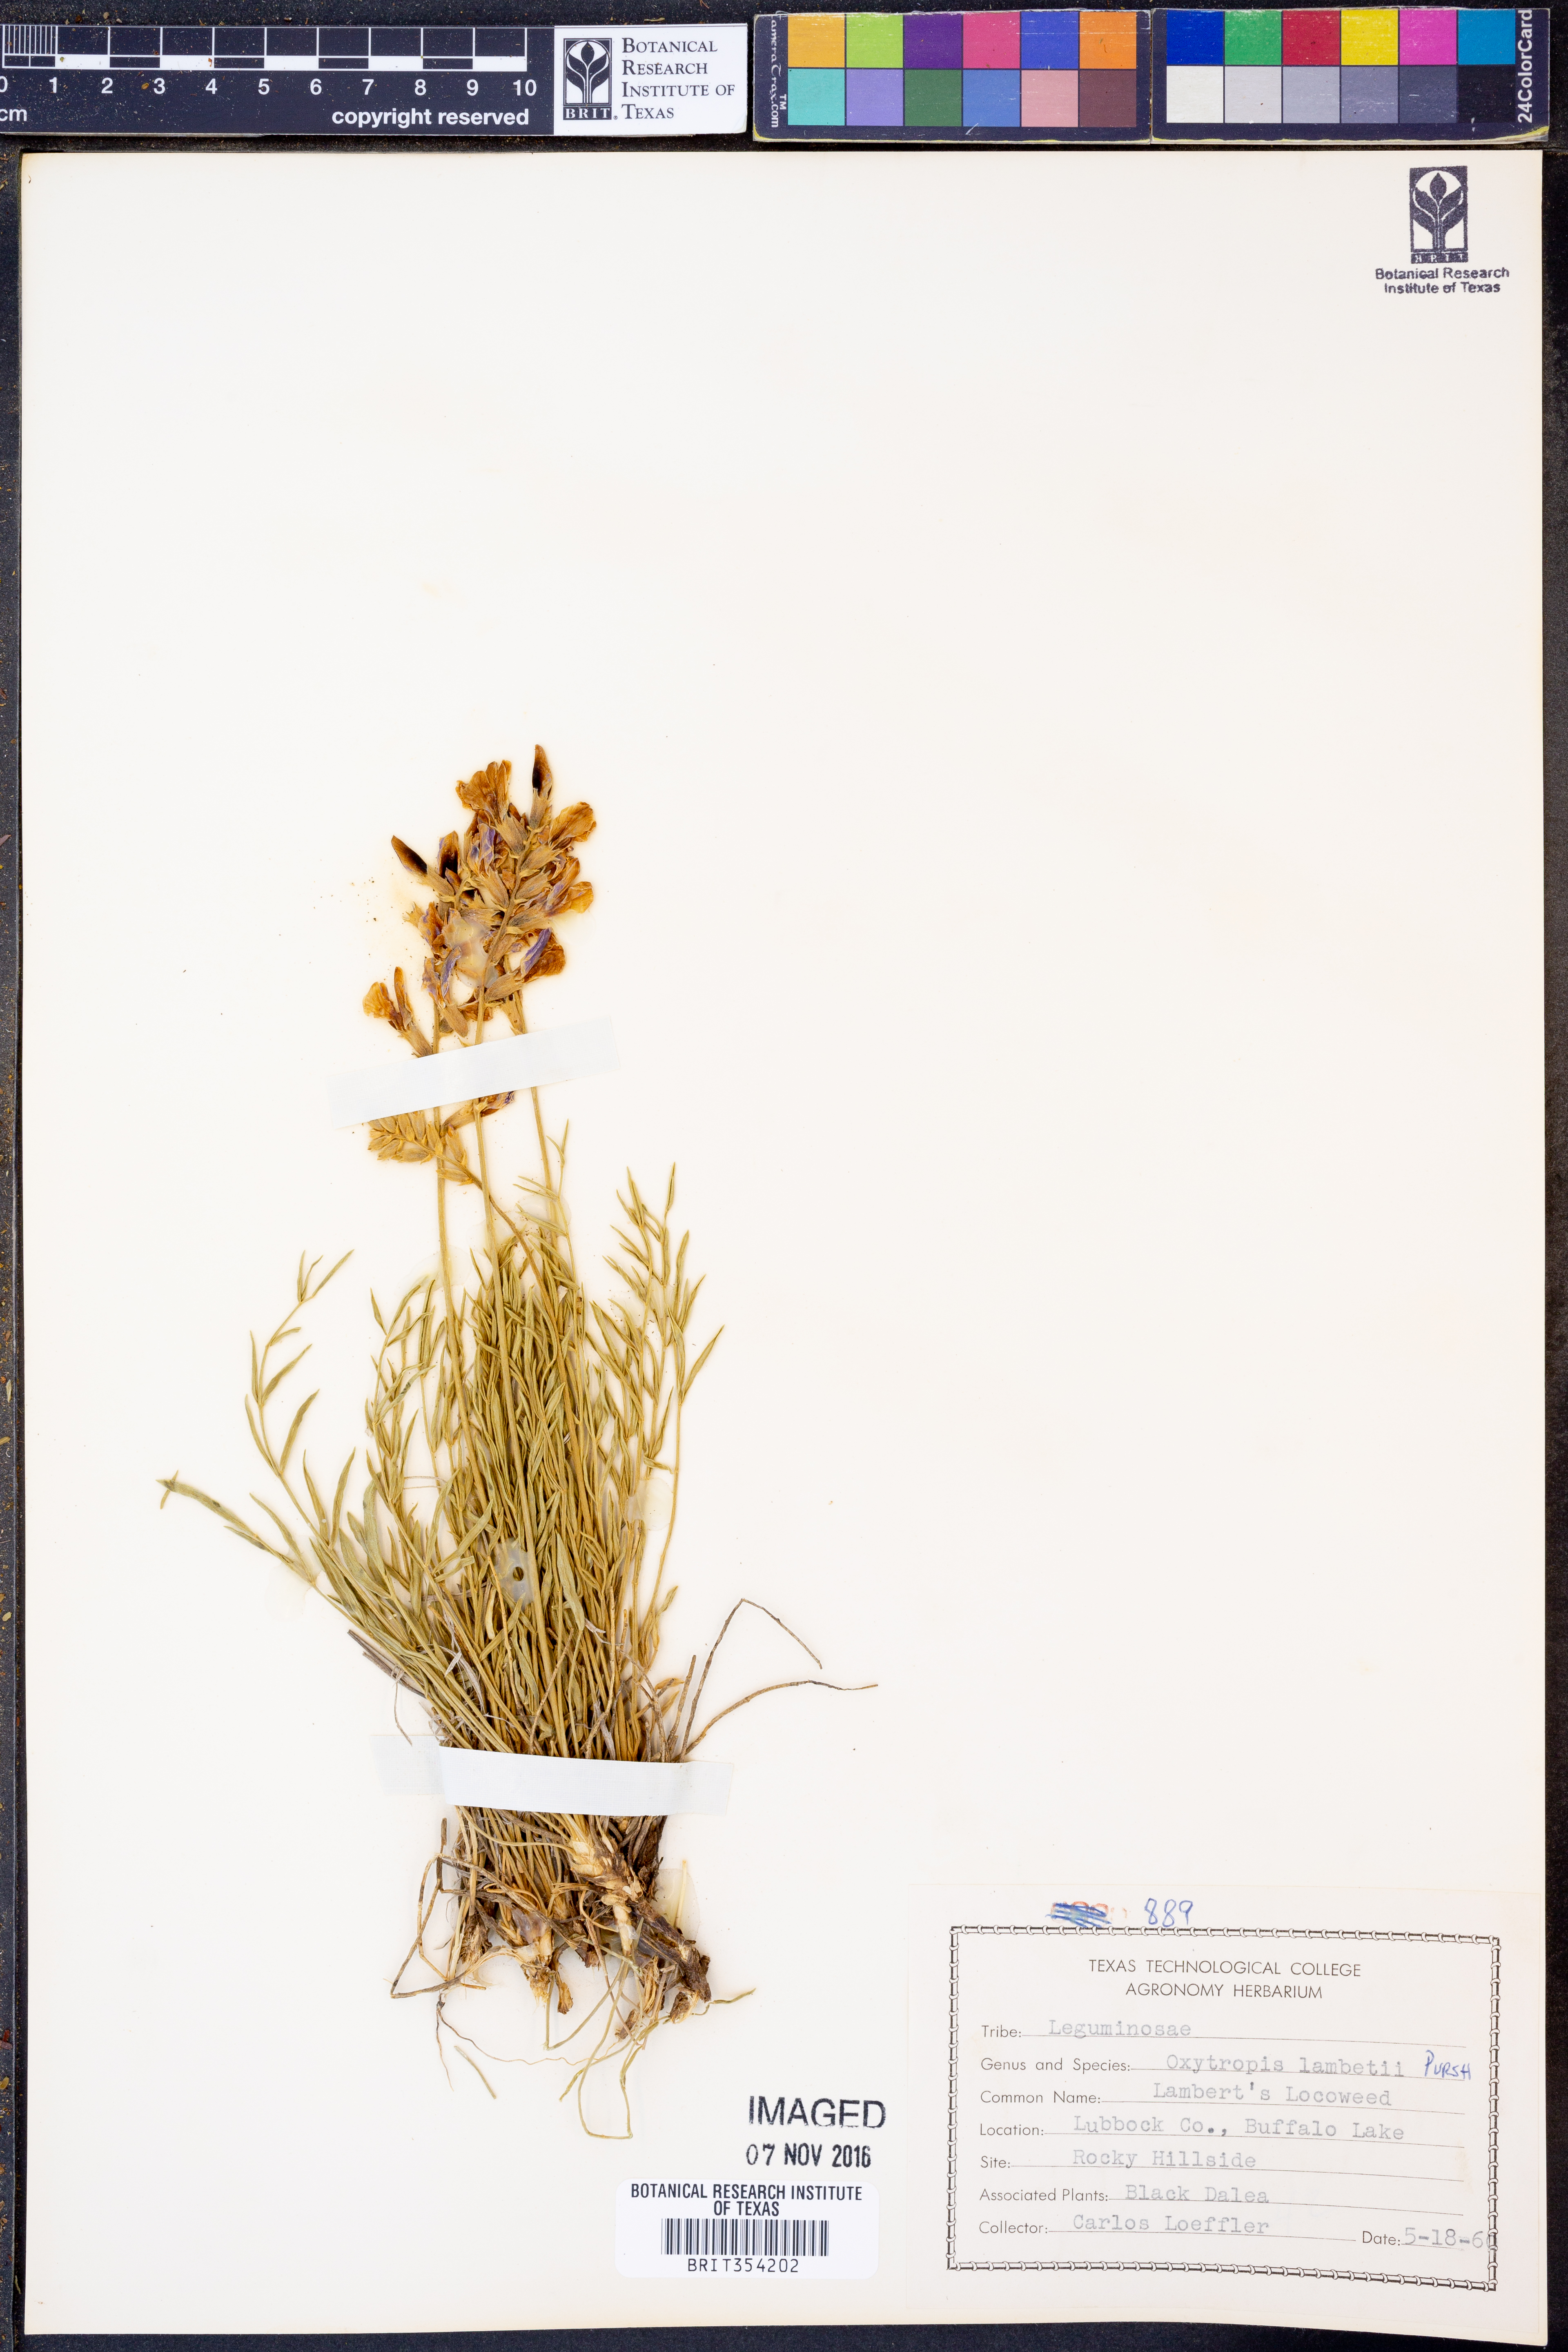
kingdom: Plantae
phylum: Tracheophyta
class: Magnoliopsida
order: Fabales
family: Fabaceae
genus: Oxytropis
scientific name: Oxytropis lambertii
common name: Purple locoweed
